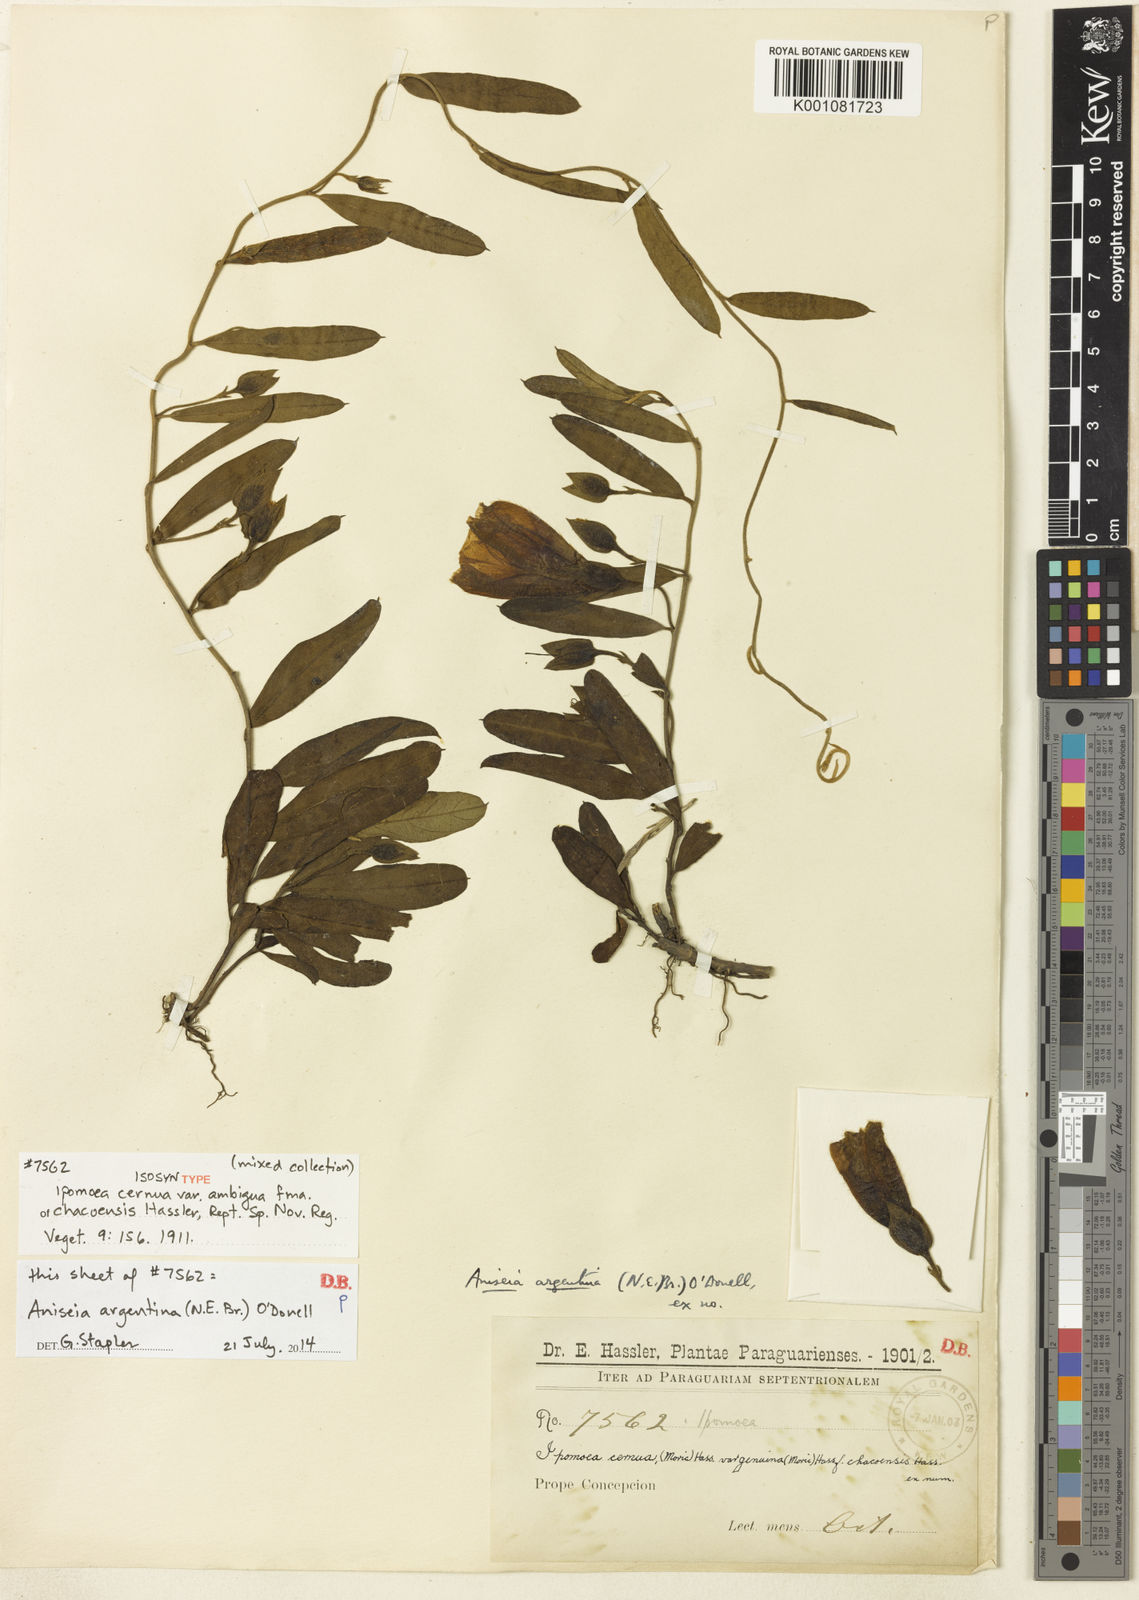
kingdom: Plantae
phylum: Tracheophyta
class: Magnoliopsida
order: Solanales
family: Convolvulaceae
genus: Aniseia
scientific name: Aniseia argentina
